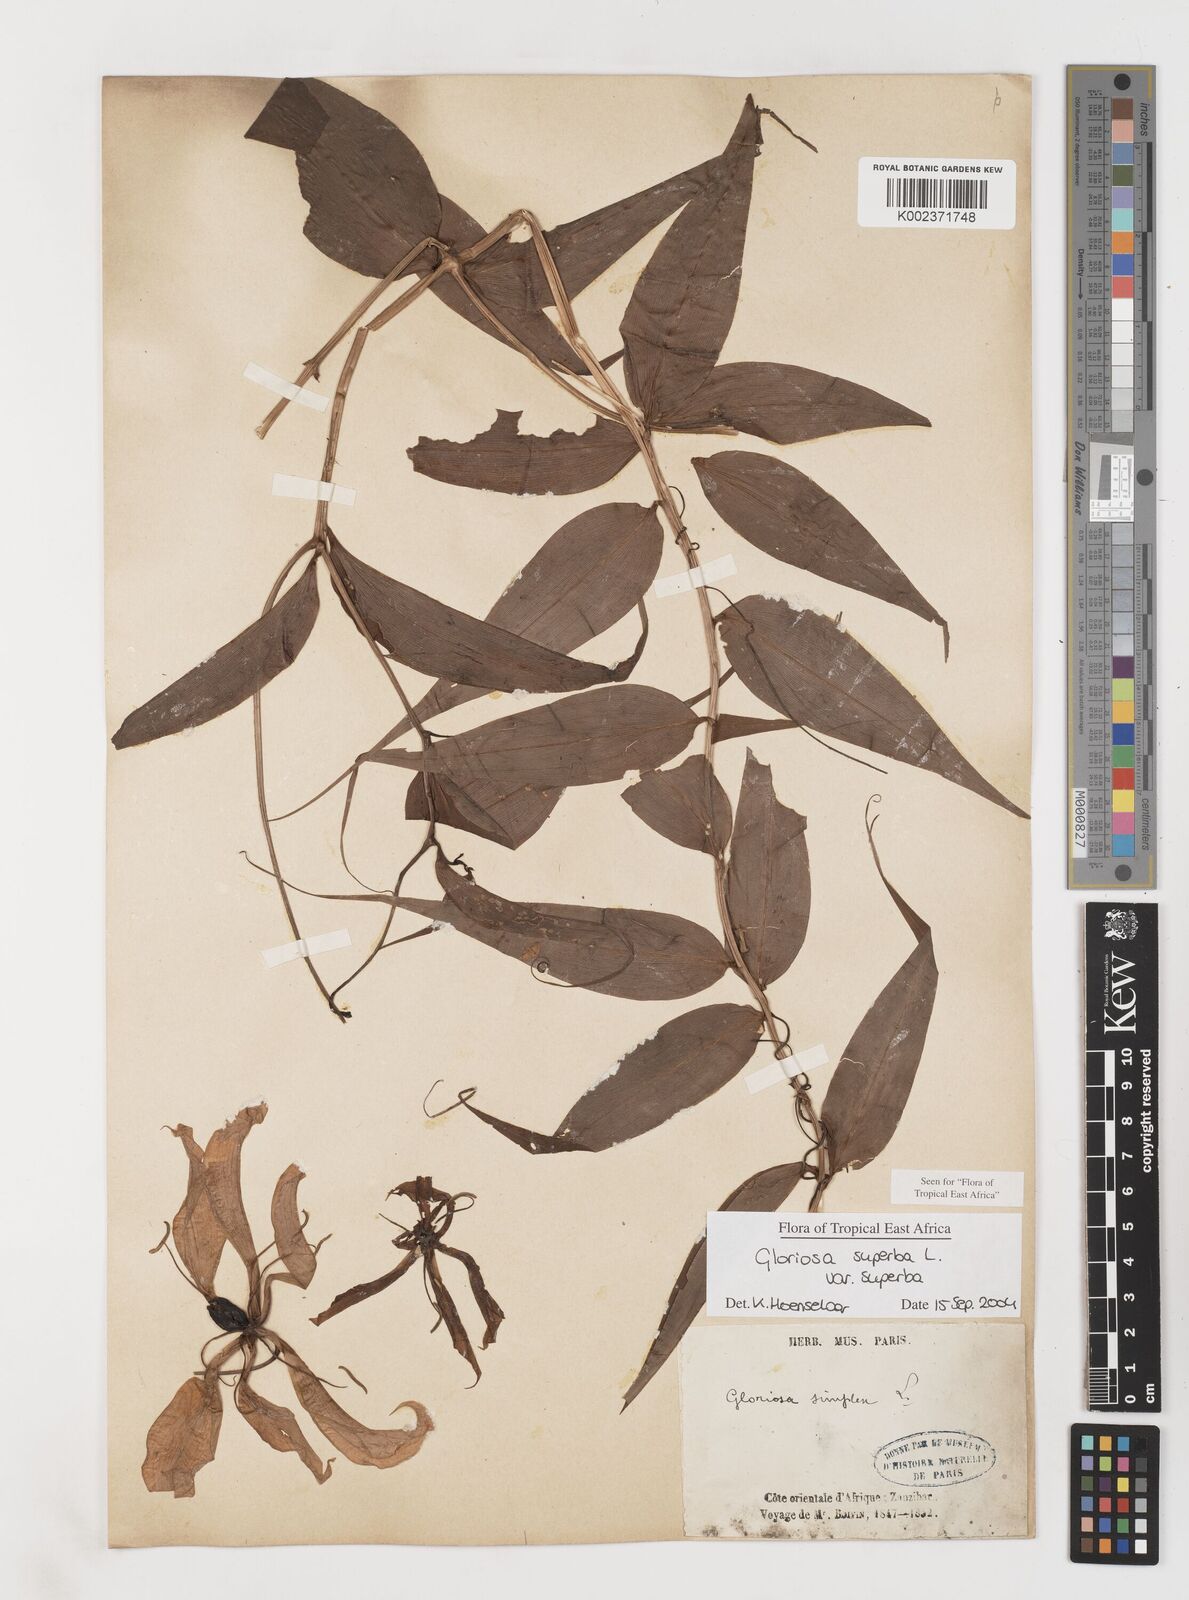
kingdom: Plantae
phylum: Tracheophyta
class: Liliopsida
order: Liliales
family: Colchicaceae
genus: Gloriosa
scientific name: Gloriosa simplex
